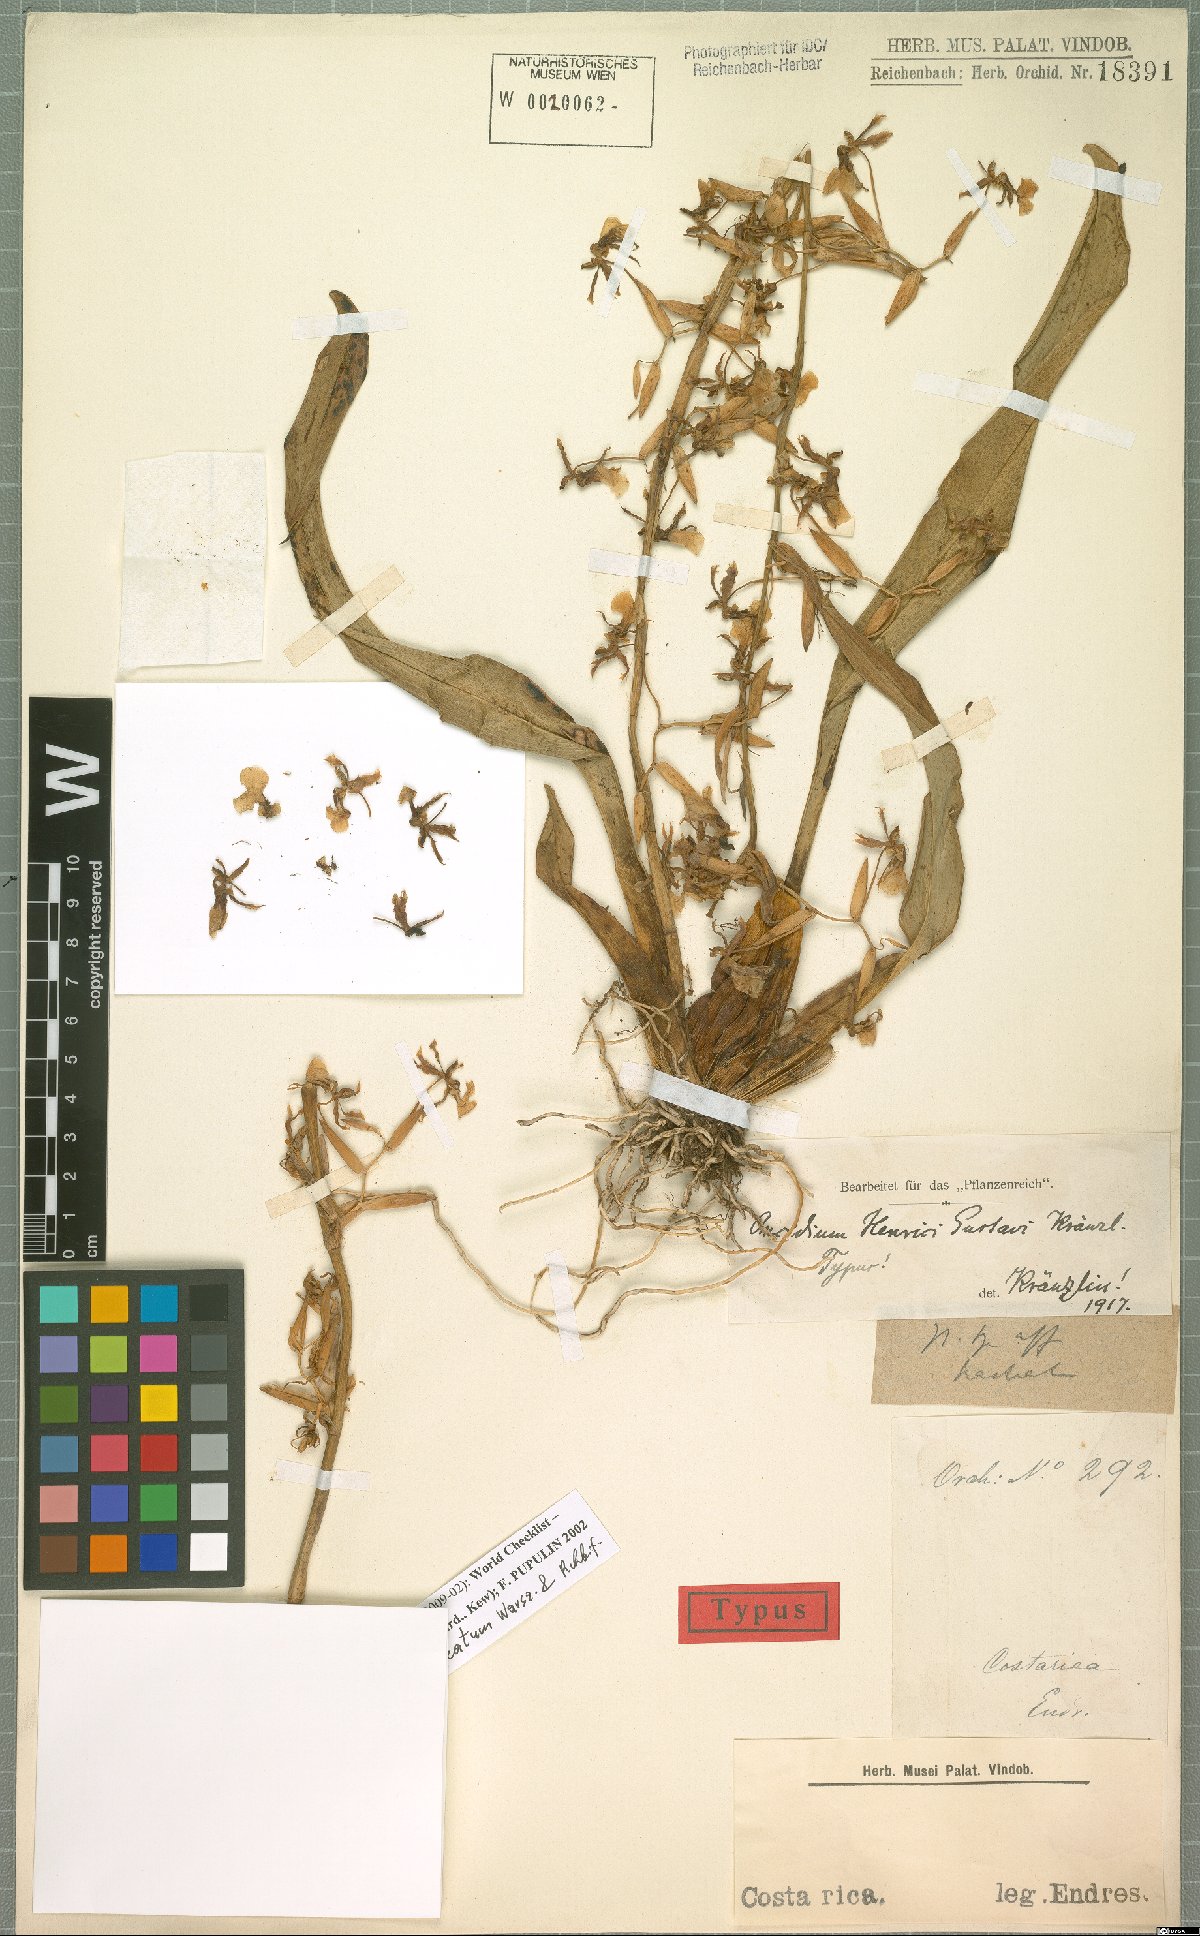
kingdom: Plantae
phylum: Tracheophyta
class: Liliopsida
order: Asparagales
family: Orchidaceae
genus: Oncidium
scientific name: Oncidium bracteatum
